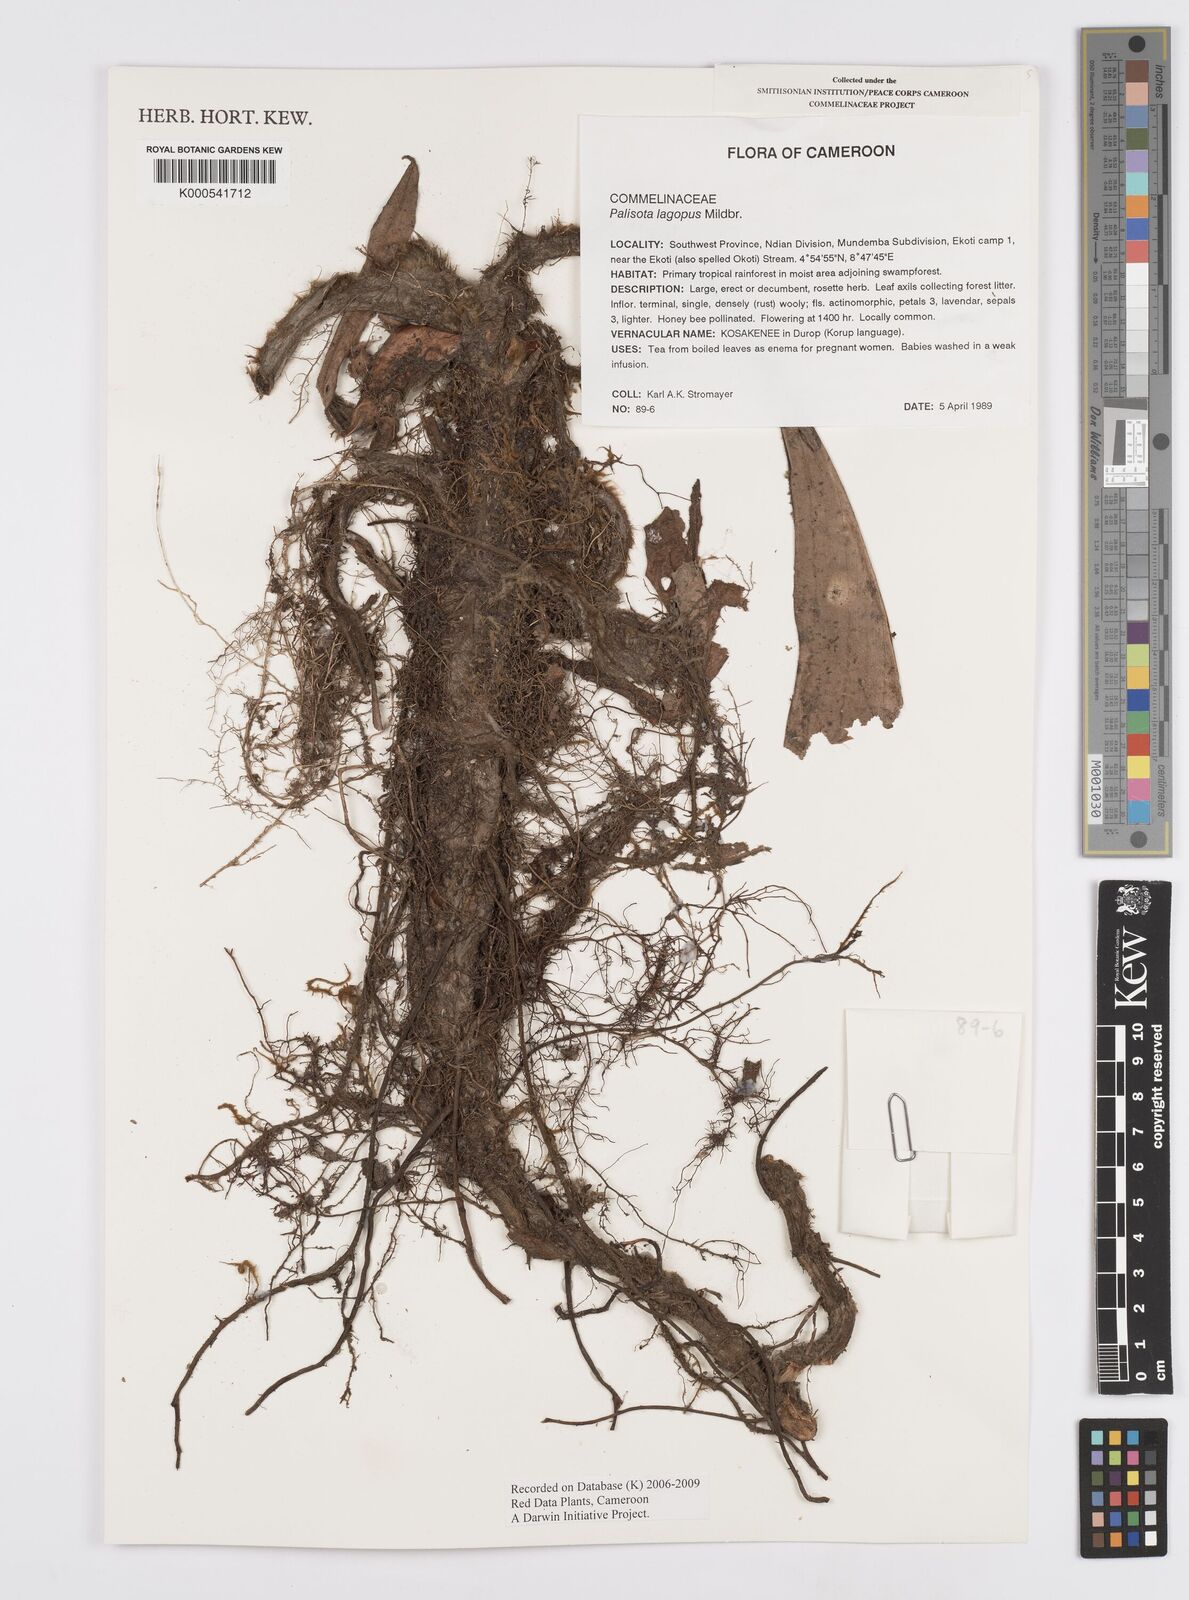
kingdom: Plantae
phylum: Tracheophyta
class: Liliopsida
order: Commelinales
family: Commelinaceae
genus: Palisota
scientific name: Palisota lagopus
